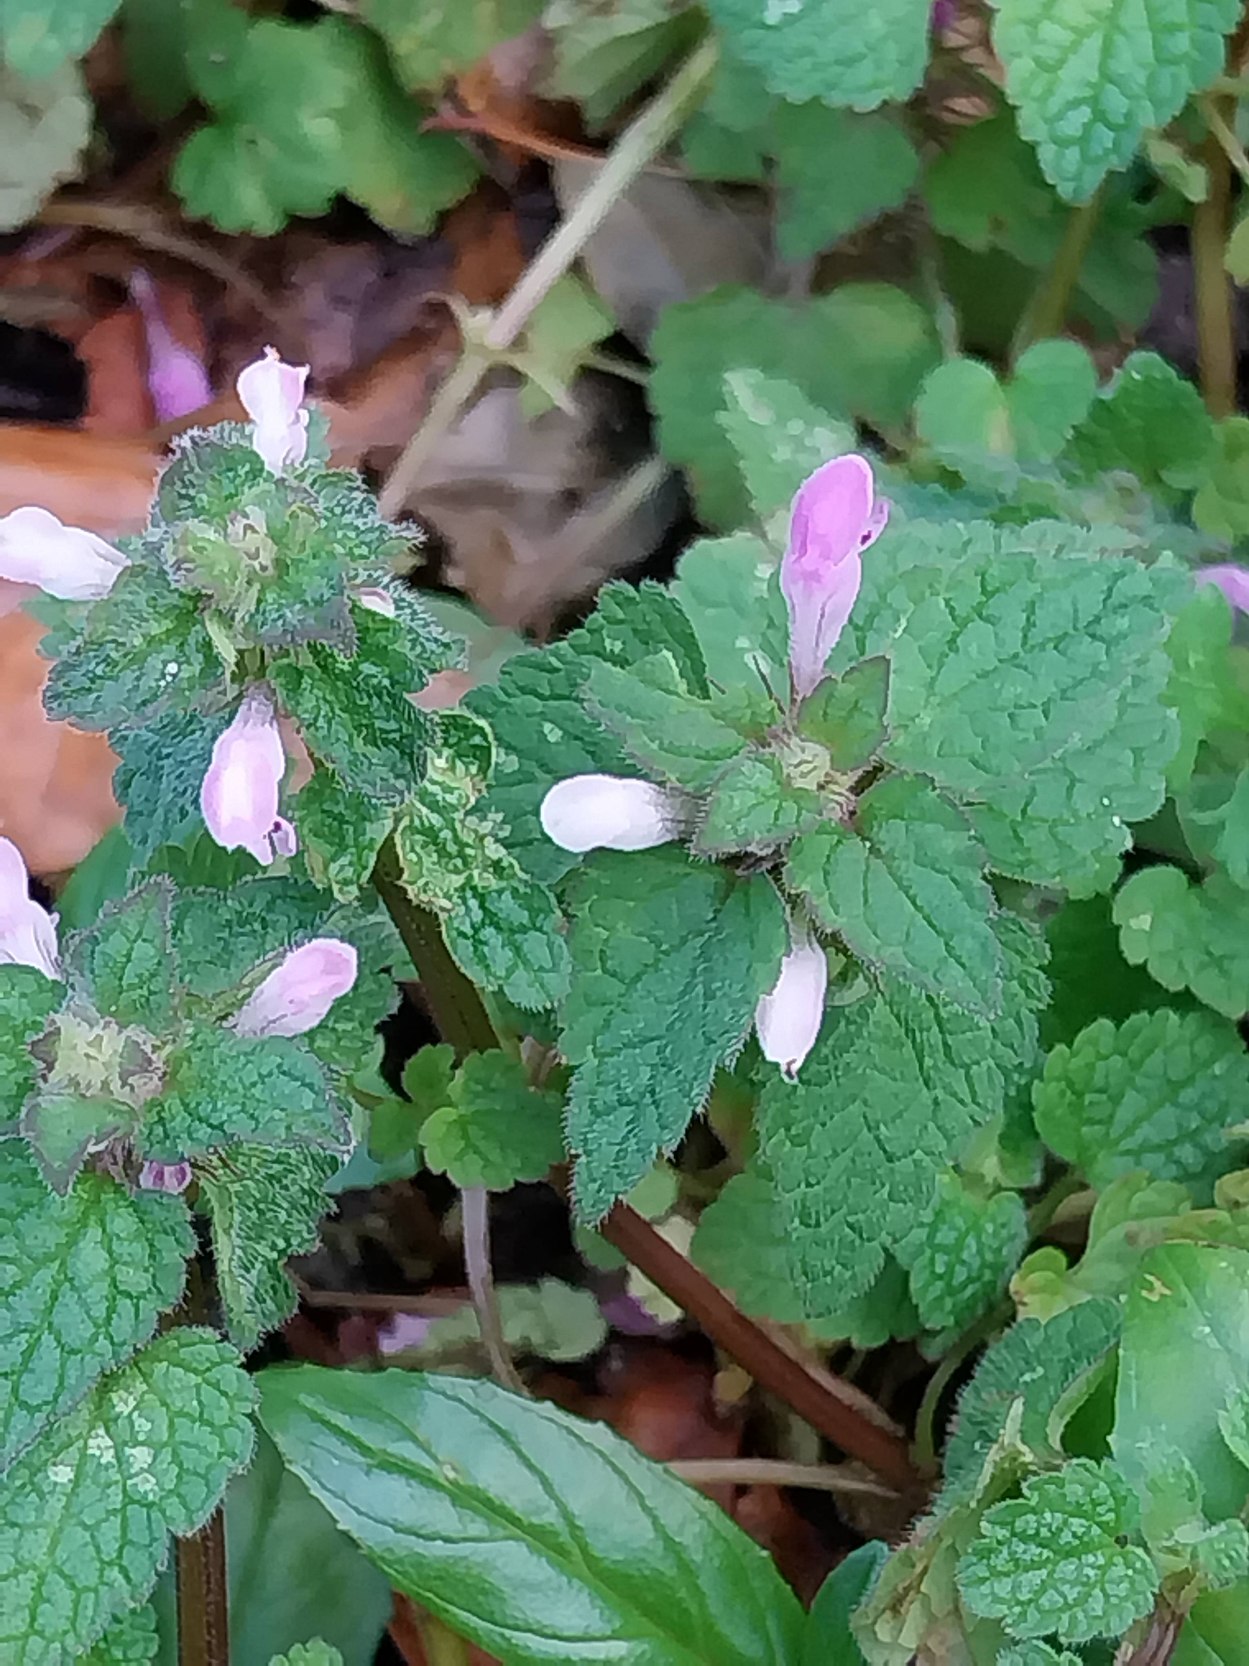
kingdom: Plantae
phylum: Tracheophyta
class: Magnoliopsida
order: Lamiales
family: Lamiaceae
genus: Lamium
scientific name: Lamium purpureum
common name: Rød tvetand
